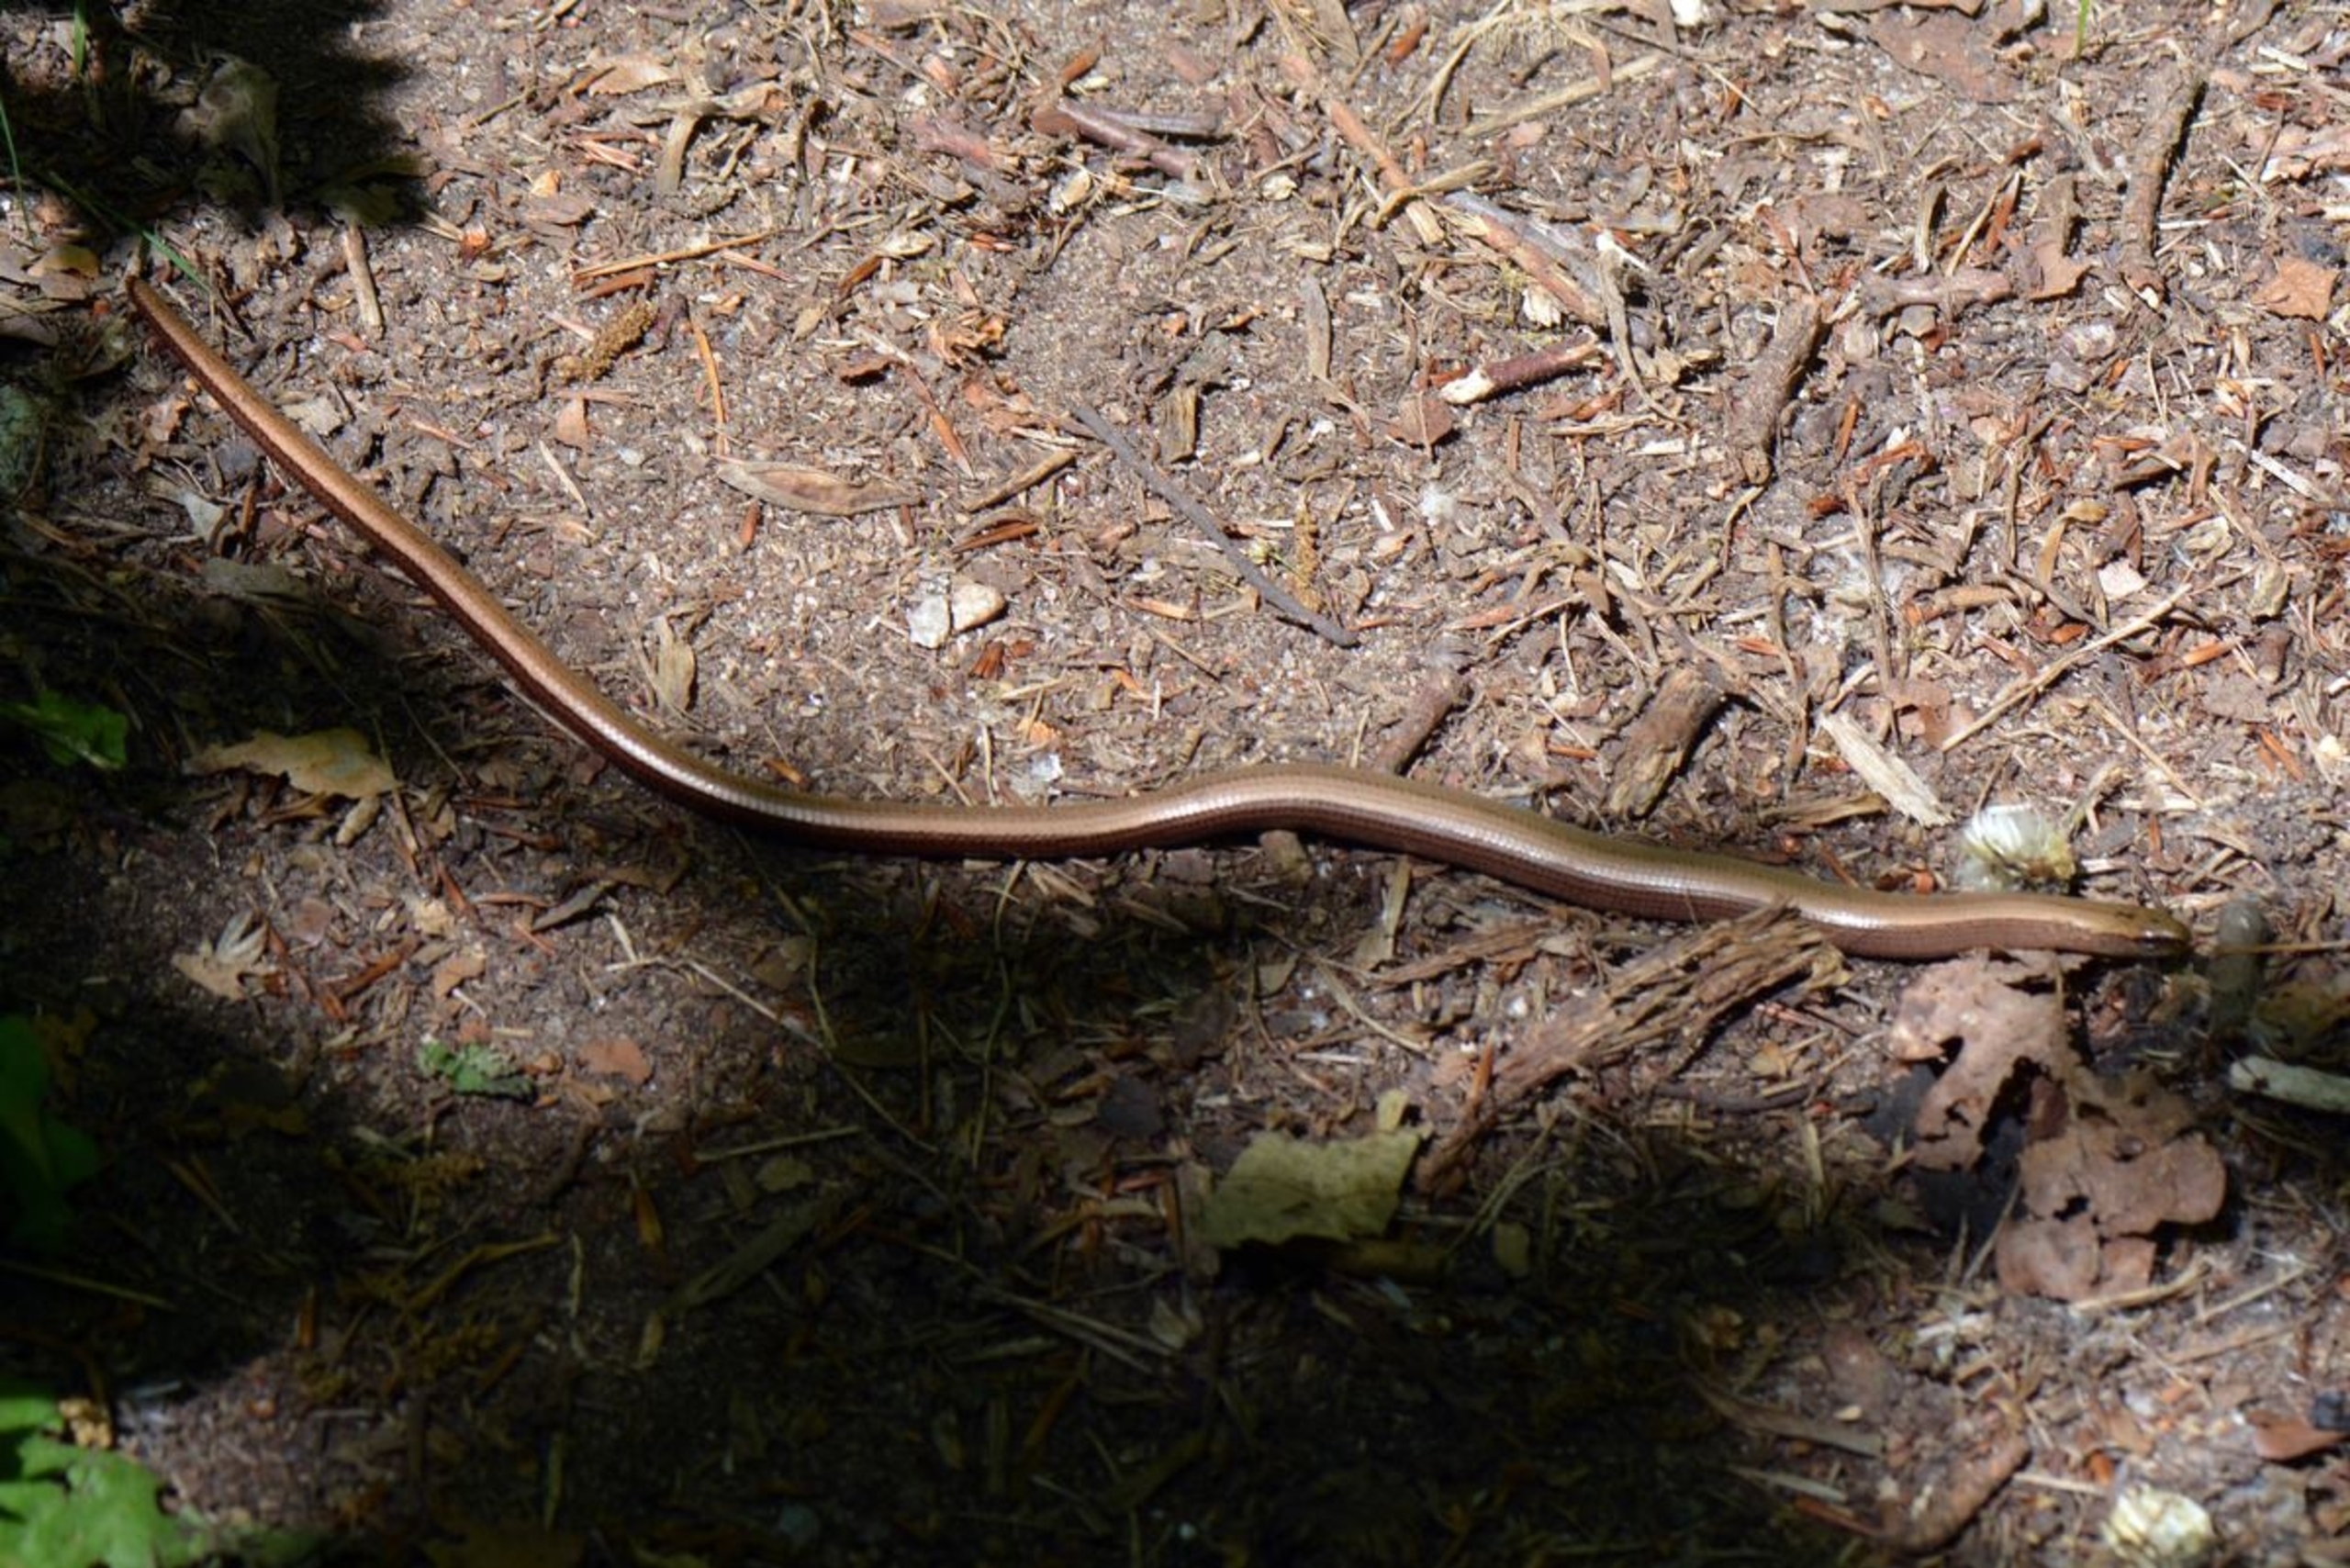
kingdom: Animalia
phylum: Chordata
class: Squamata
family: Anguidae
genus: Anguis
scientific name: Anguis fragilis
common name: Stålorm
